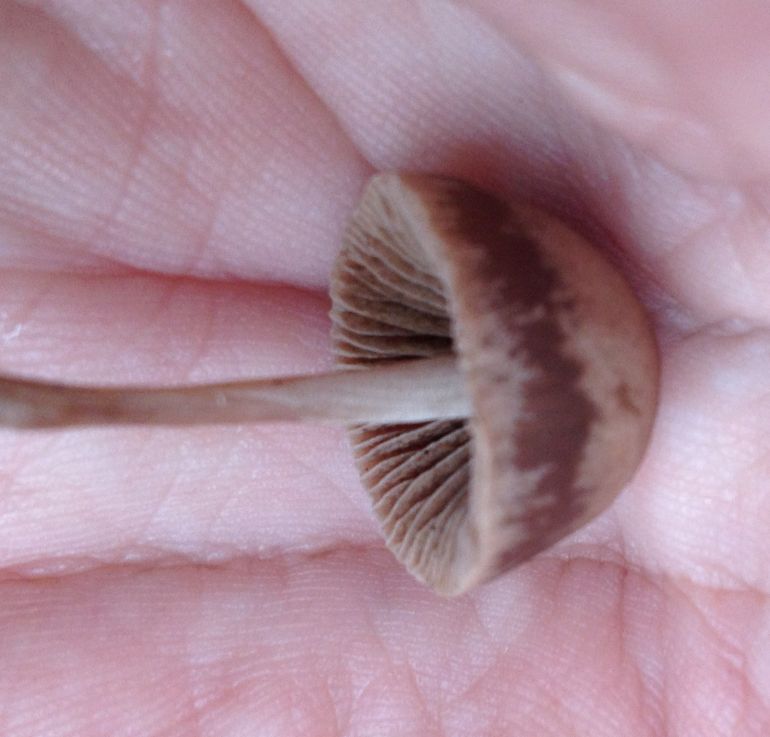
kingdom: Fungi
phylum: Basidiomycota
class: Agaricomycetes
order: Agaricales
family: Bolbitiaceae
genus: Panaeolina
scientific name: Panaeolina foenisecii
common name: høslætsvamp
